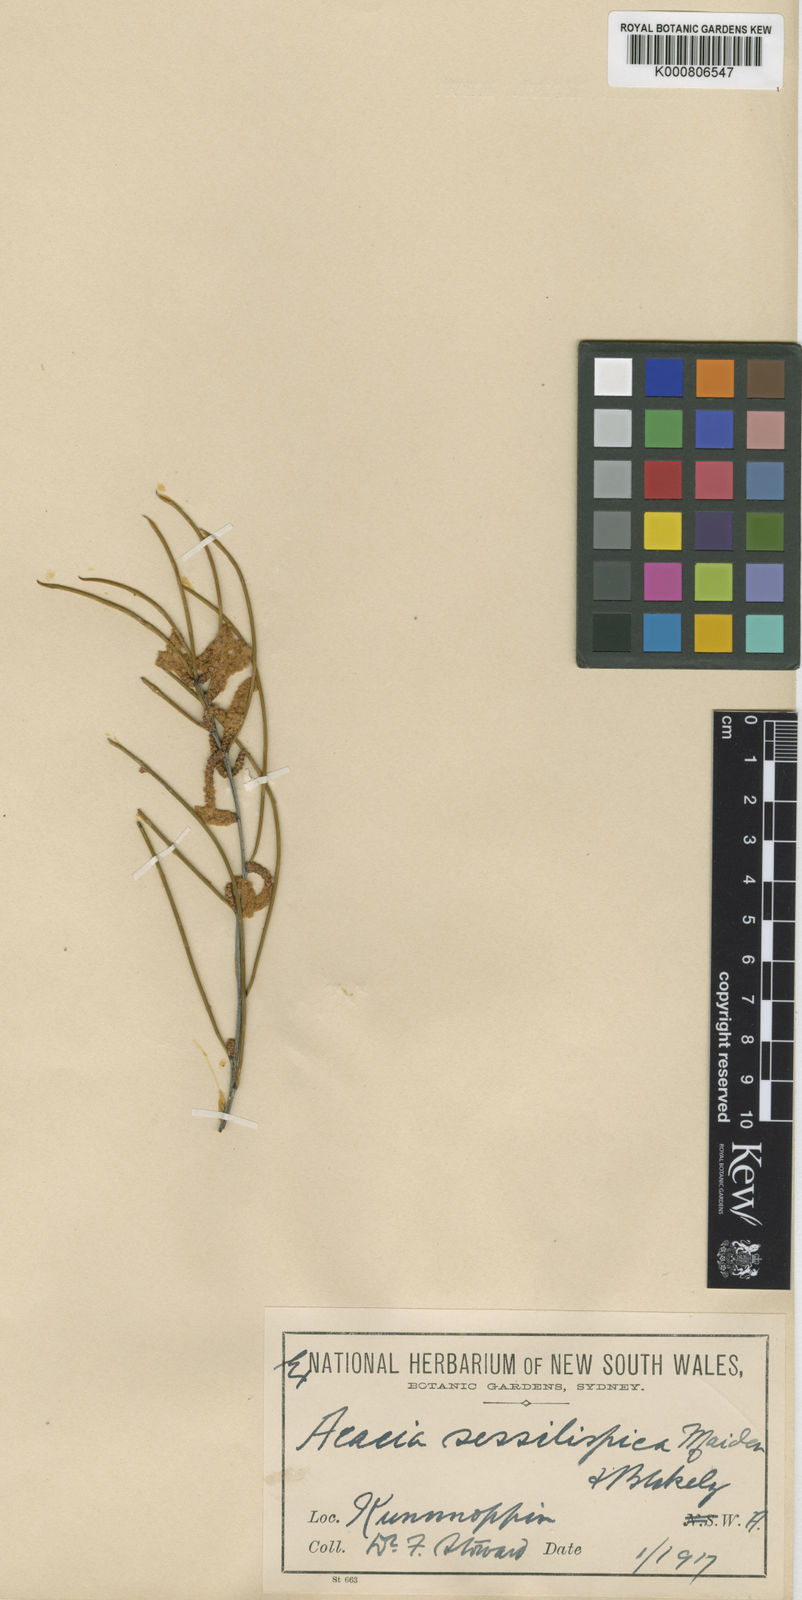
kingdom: Plantae
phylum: Tracheophyta
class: Magnoliopsida
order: Fabales
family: Fabaceae
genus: Acacia
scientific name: Acacia sessilispica
